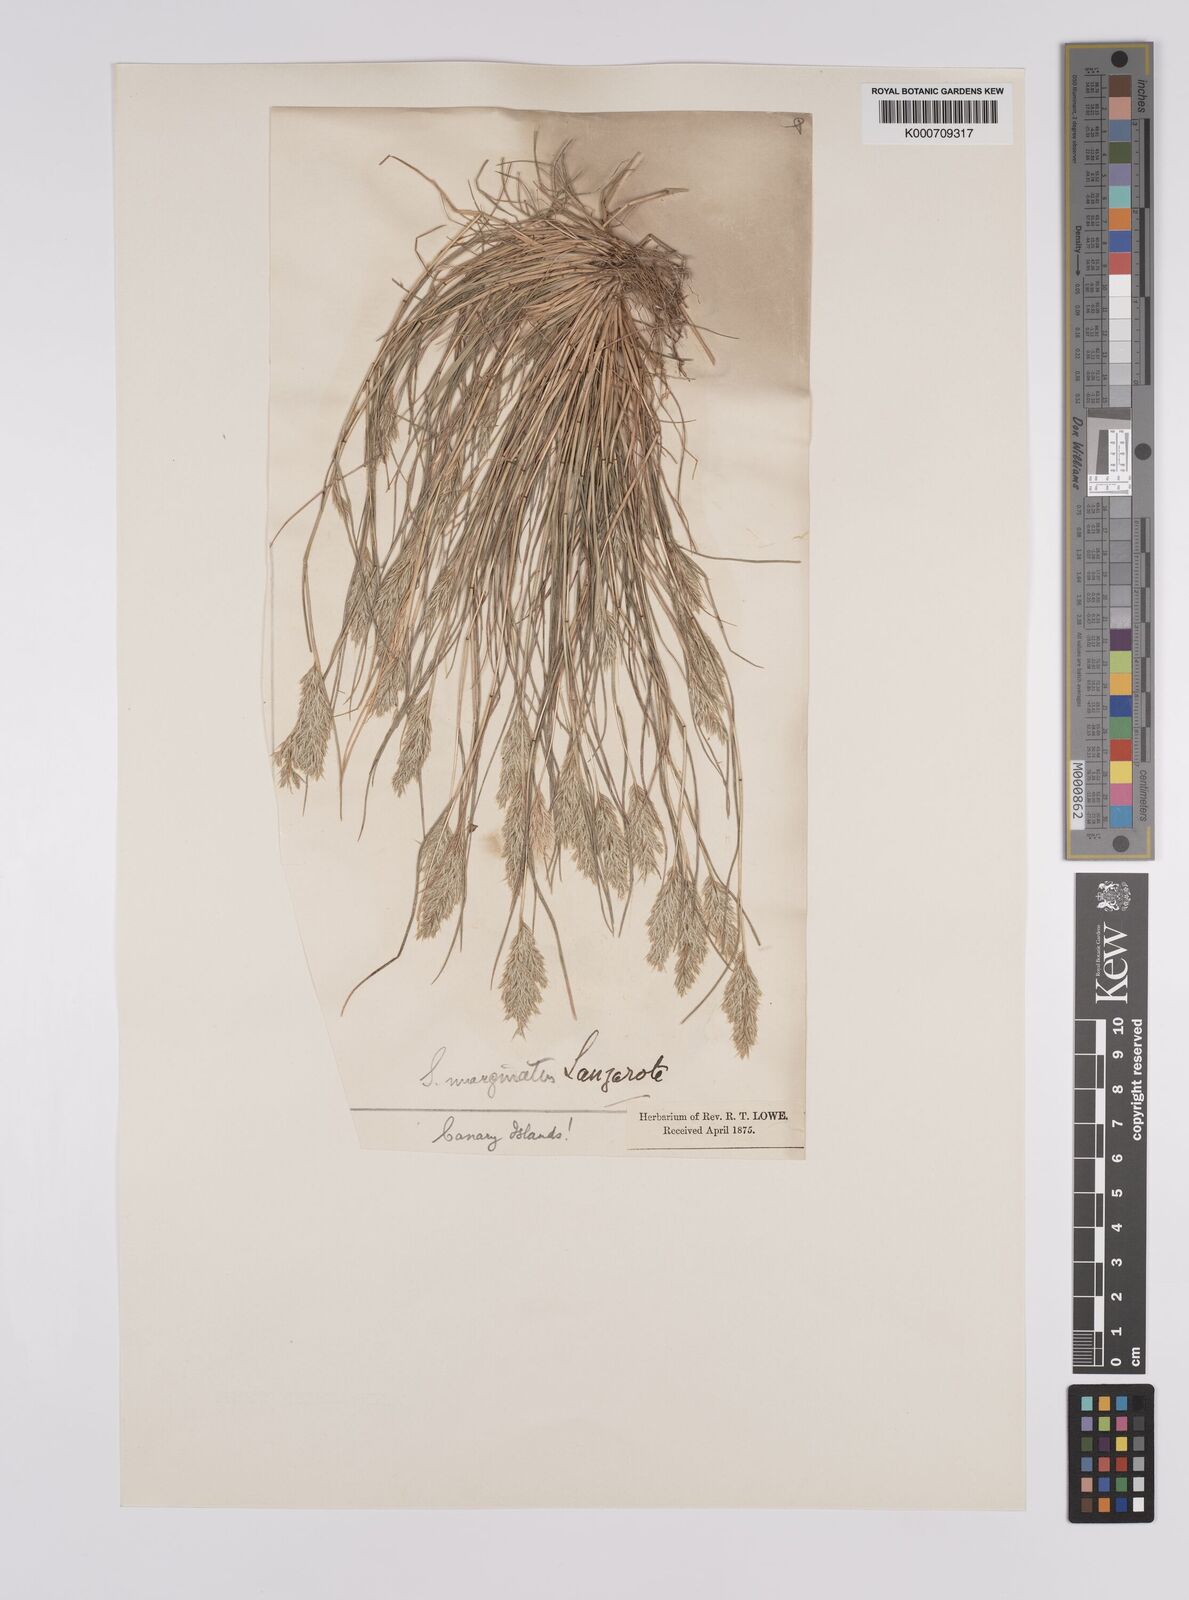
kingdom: Plantae
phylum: Tracheophyta
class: Liliopsida
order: Poales
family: Poaceae
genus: Schismus
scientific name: Schismus barbatus
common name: Kelch-grass
